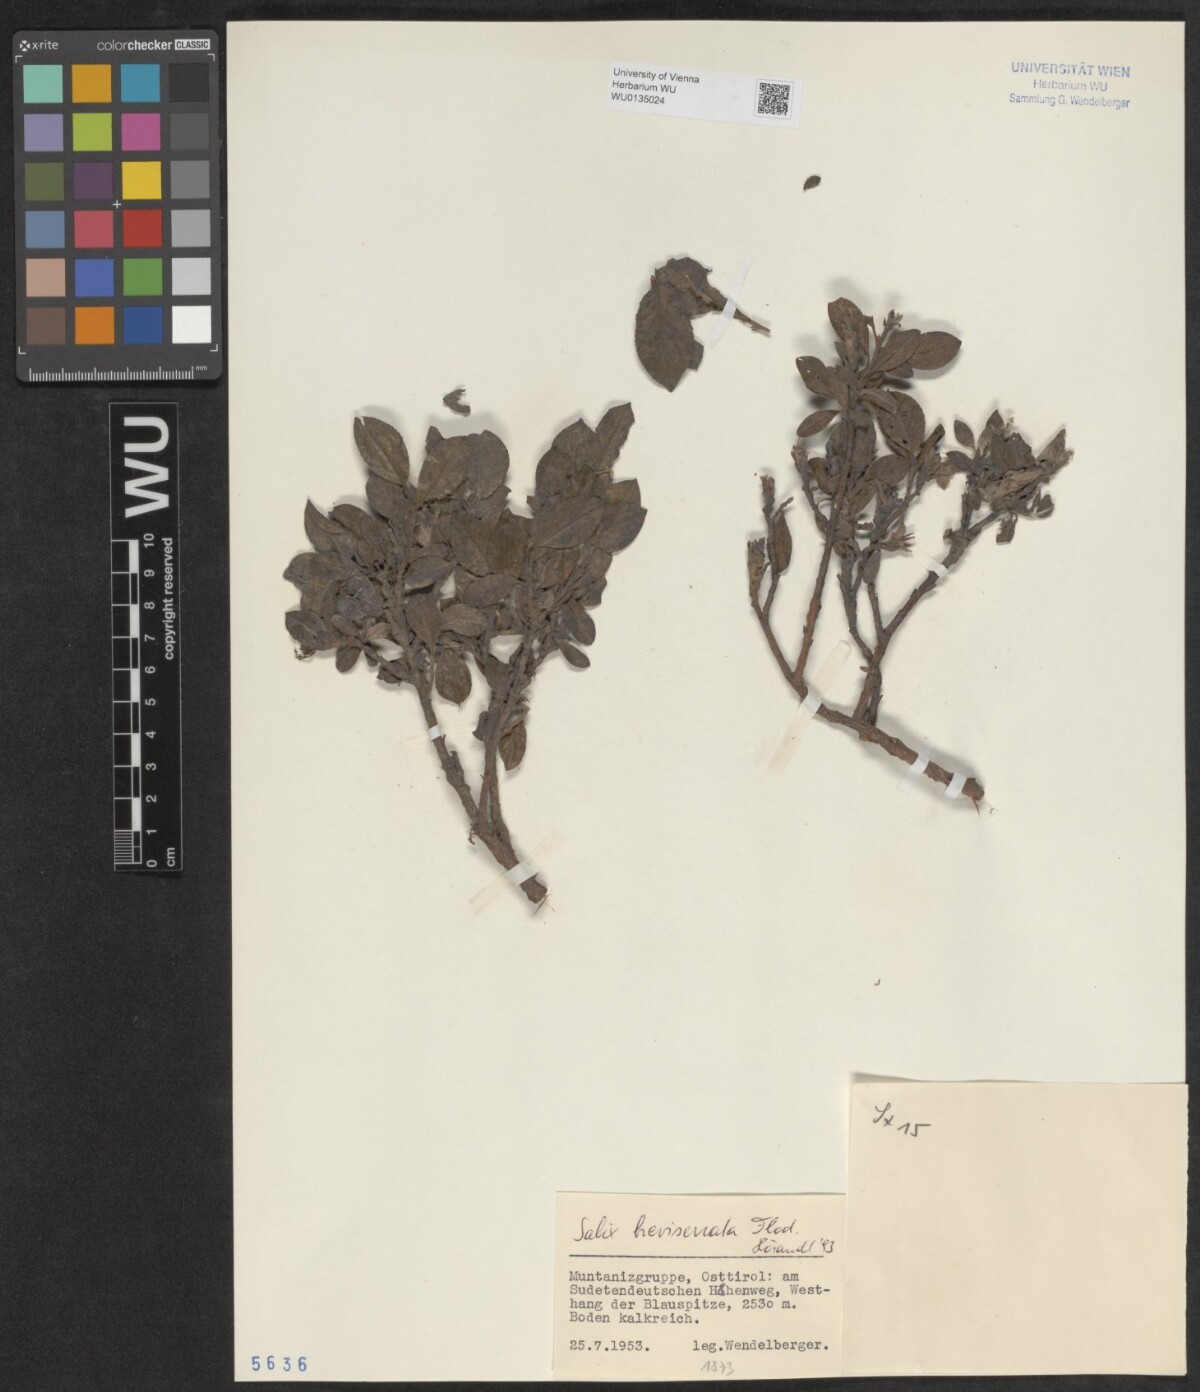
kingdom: Plantae
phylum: Tracheophyta
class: Magnoliopsida
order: Malpighiales
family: Salicaceae
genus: Salix
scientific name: Salix breviserrata
